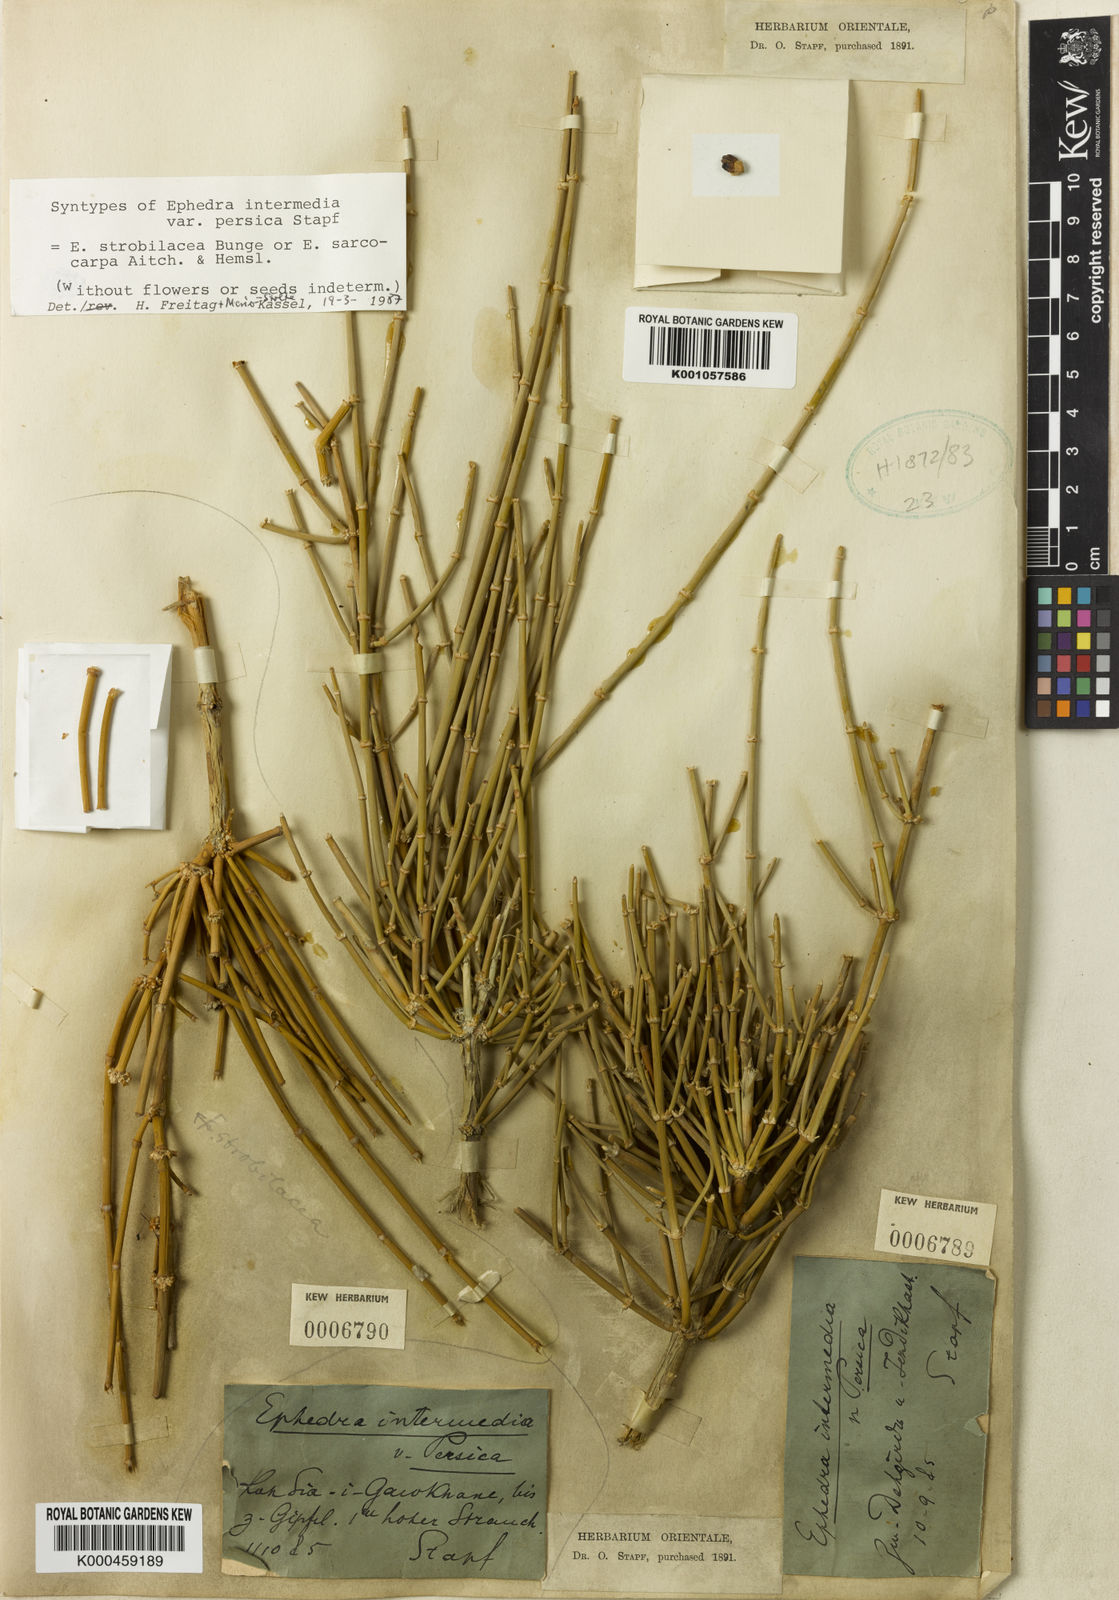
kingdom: Plantae
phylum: Tracheophyta
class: Gnetopsida
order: Ephedrales
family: Ephedraceae
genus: Ephedra
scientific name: Ephedra intermedia
